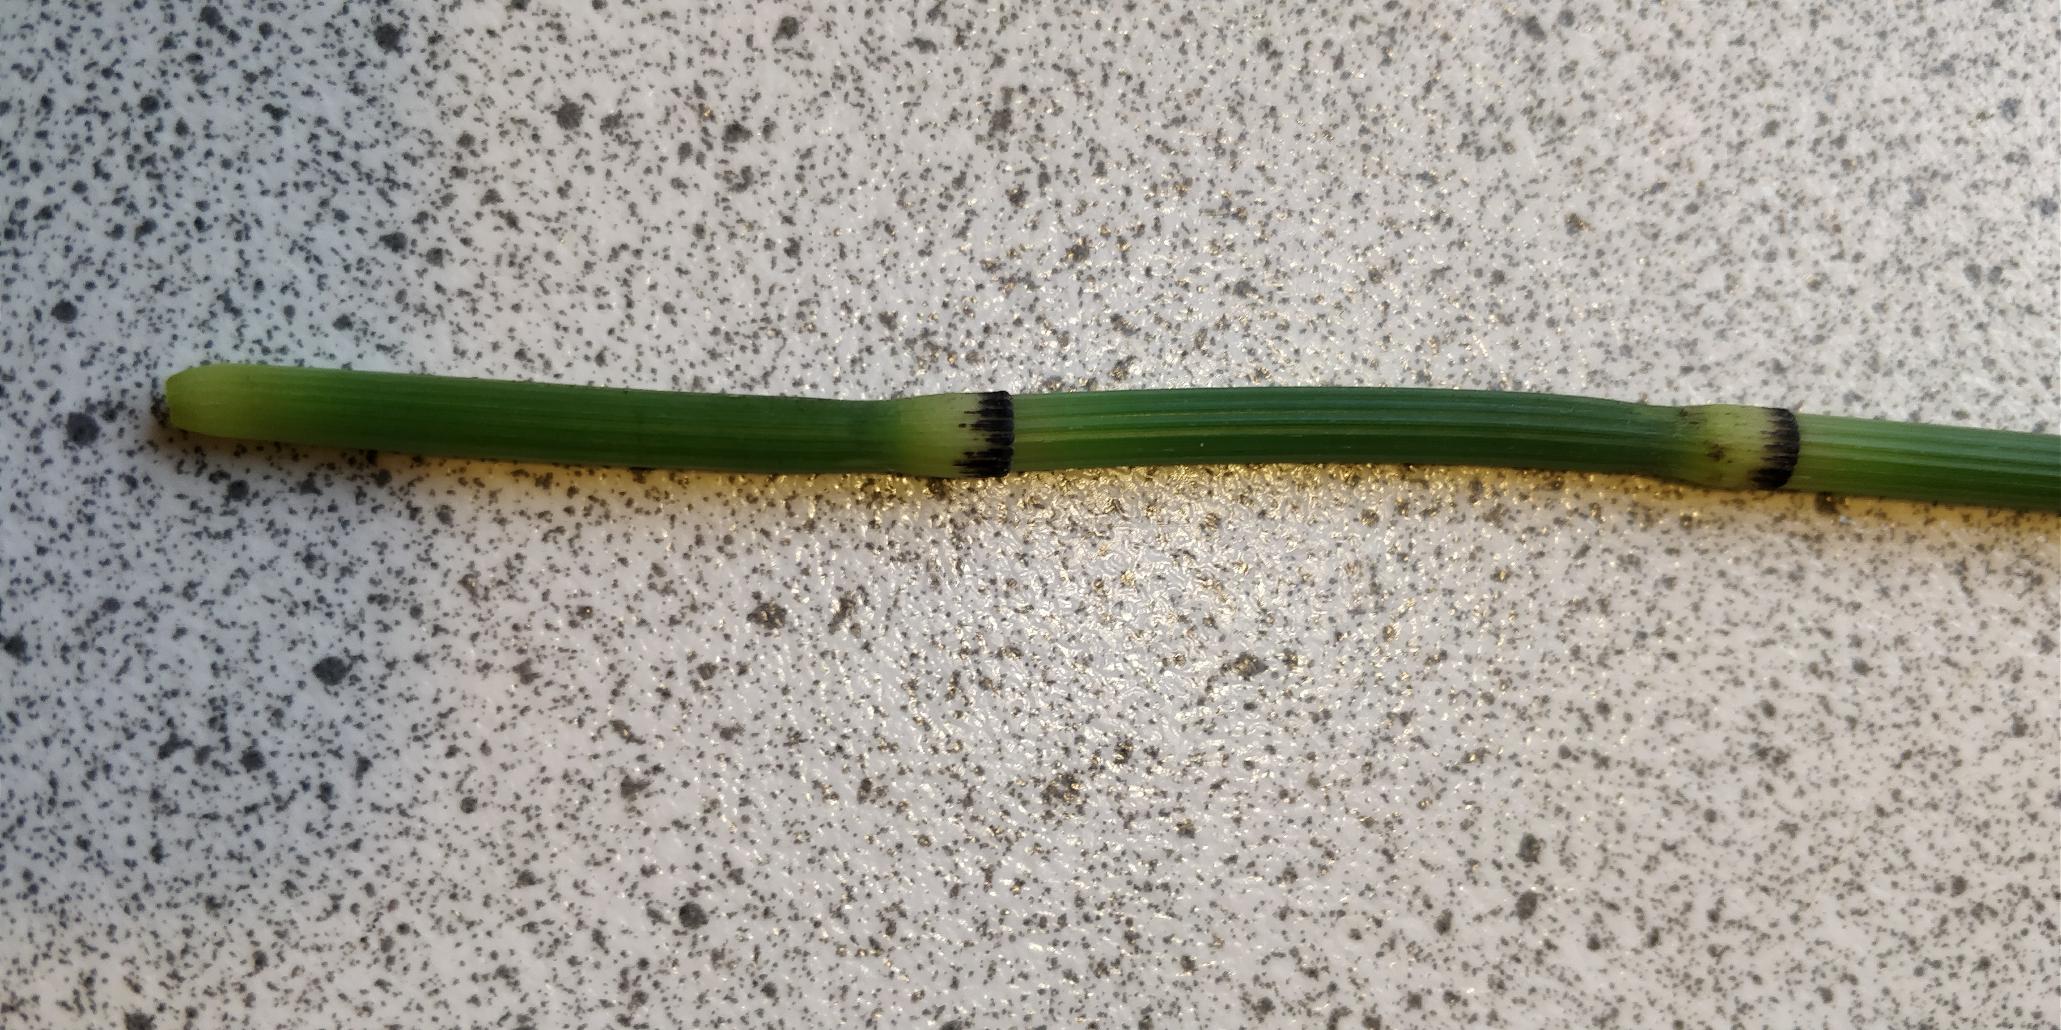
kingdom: Plantae
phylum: Tracheophyta
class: Polypodiopsida
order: Equisetales
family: Equisetaceae
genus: Equisetum
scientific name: Equisetum hyemale
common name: Skavgræs
